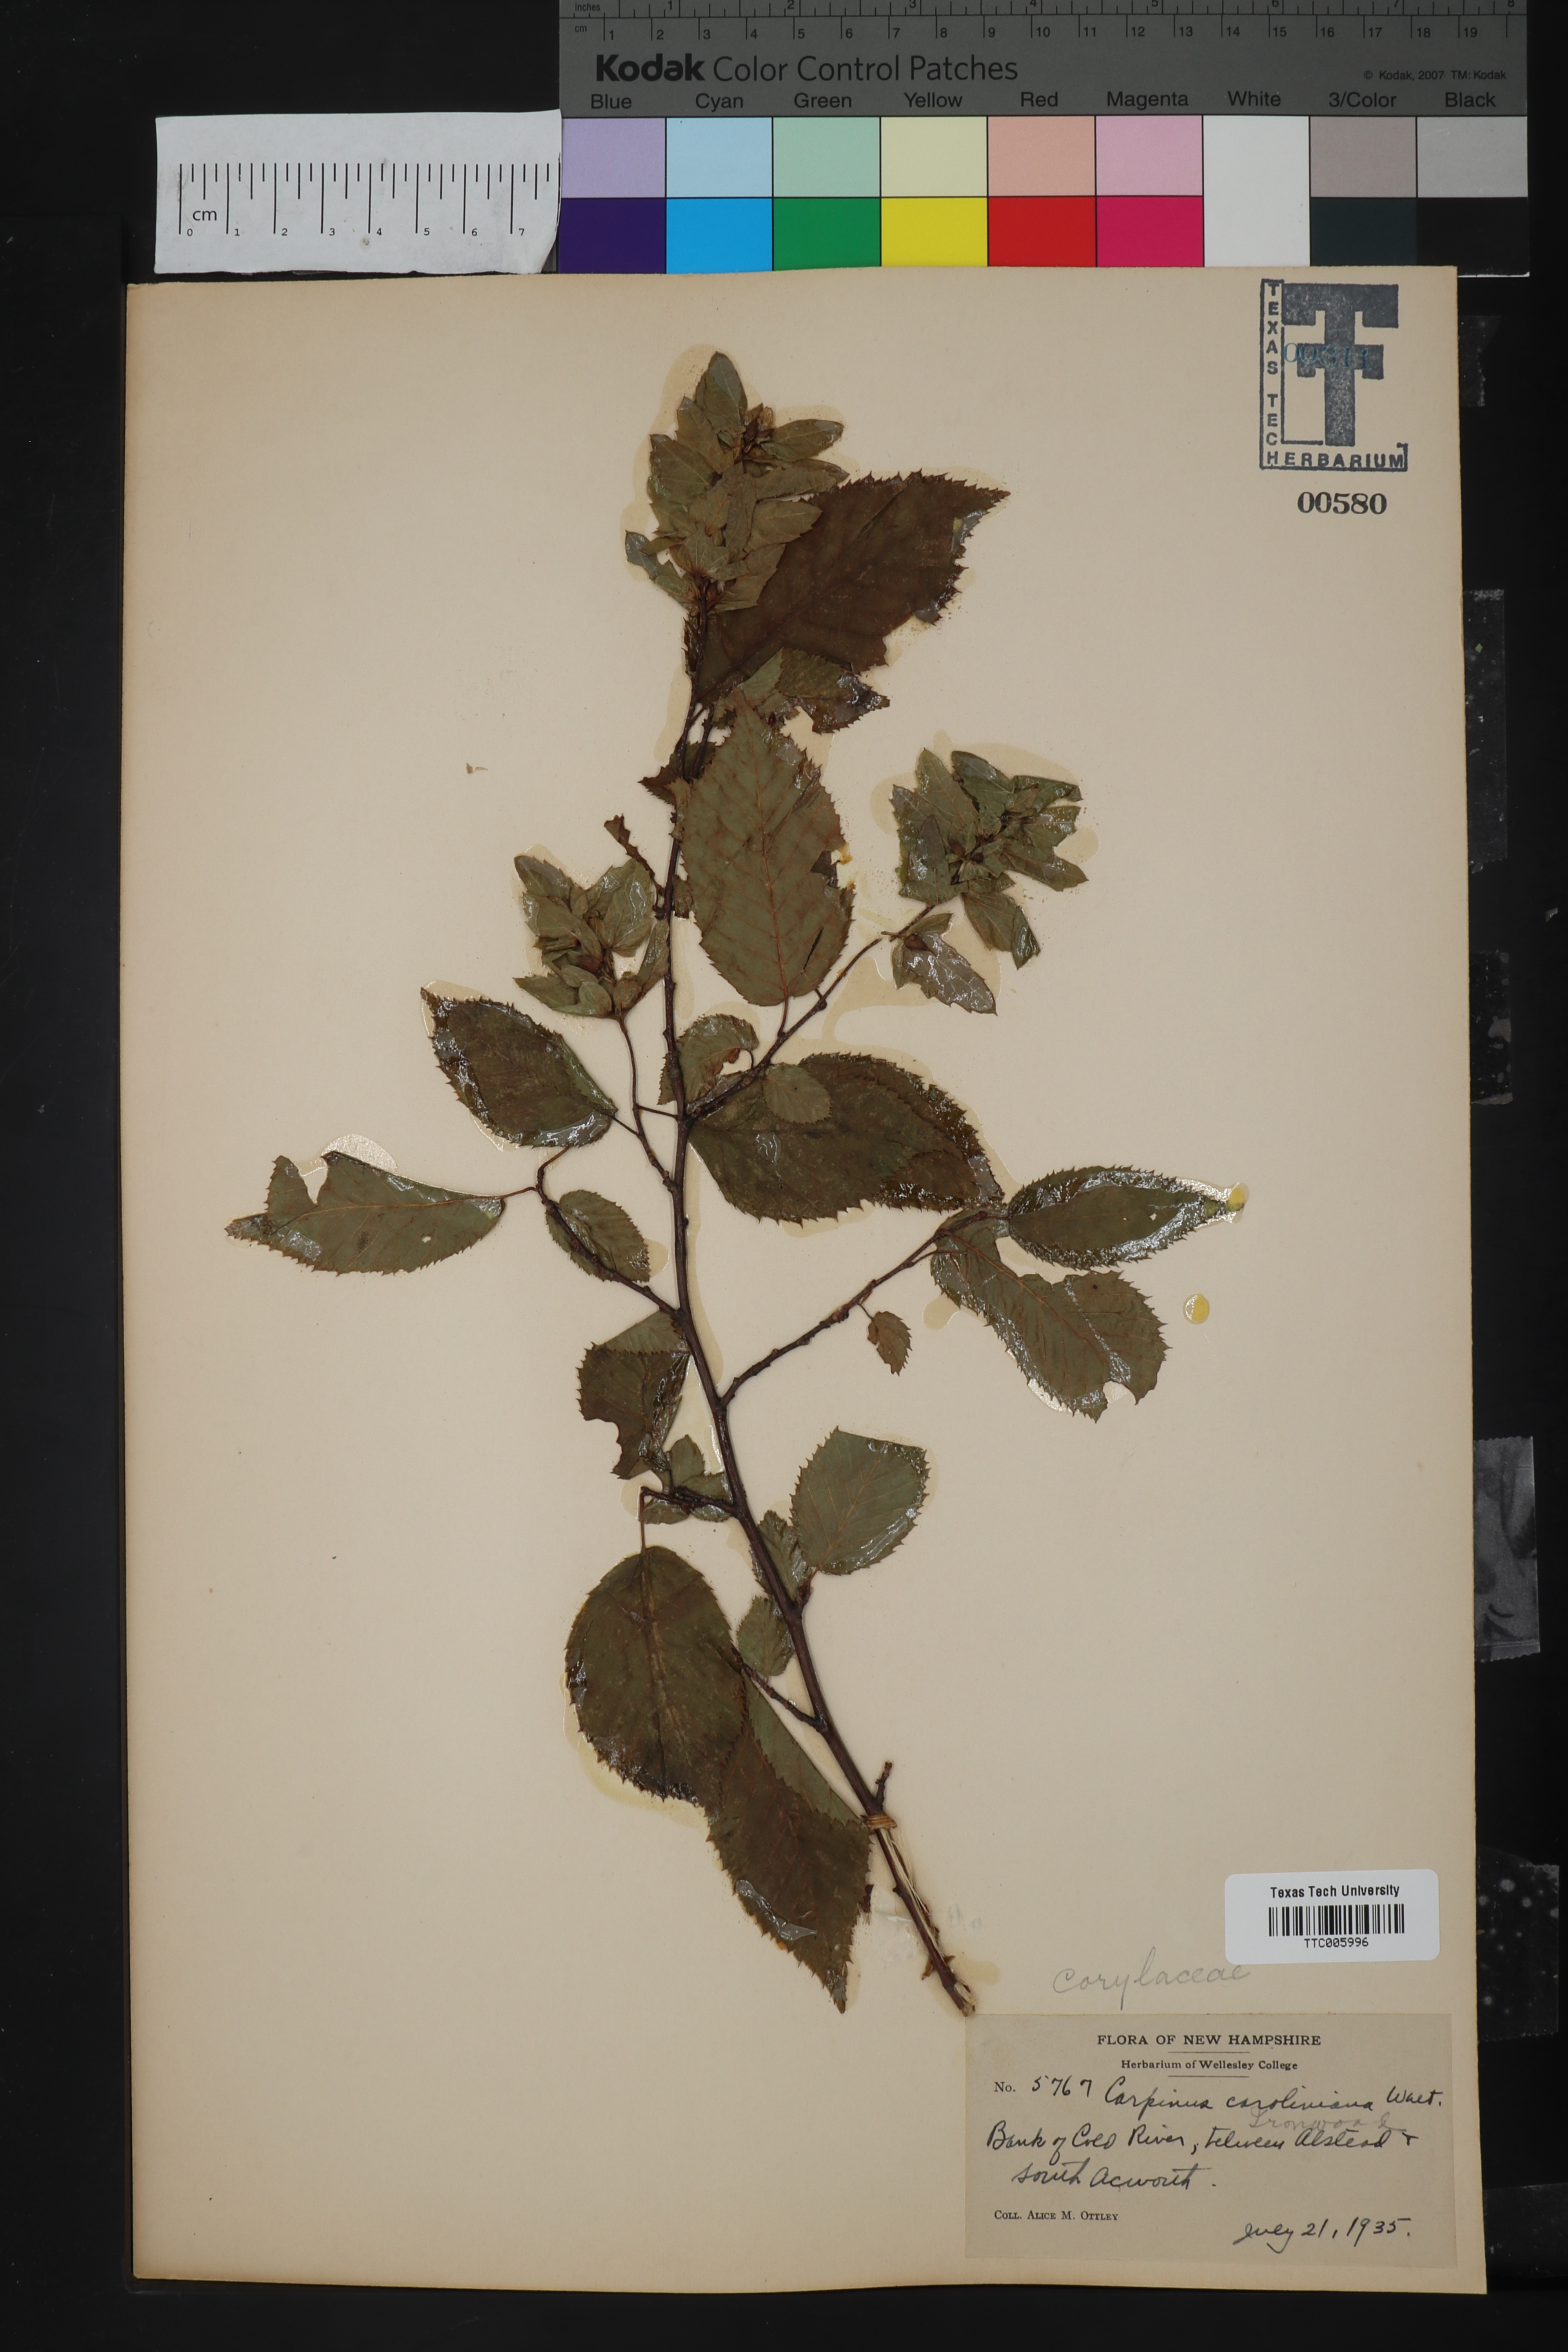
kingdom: Plantae
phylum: Tracheophyta
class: Magnoliopsida
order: Fagales
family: Betulaceae
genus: Carpinus
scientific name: Carpinus caroliniana
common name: American hornbeam
